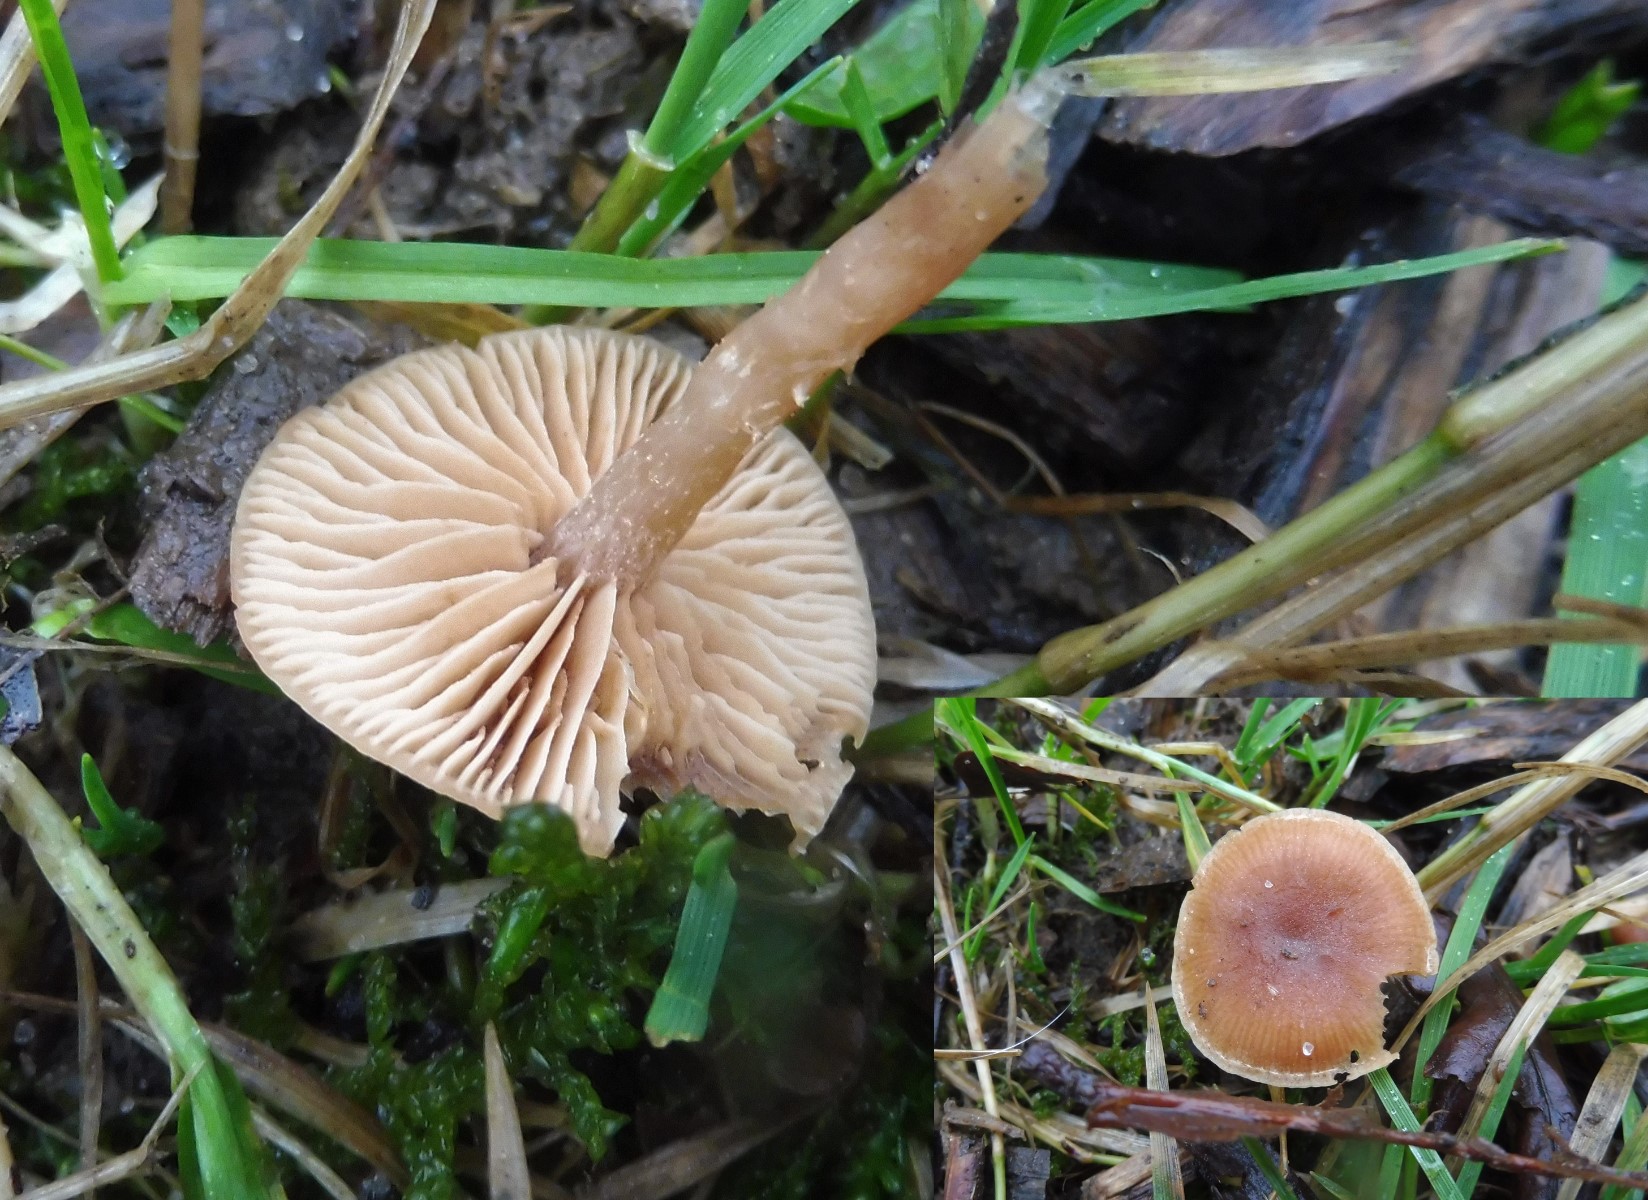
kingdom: Fungi
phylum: Basidiomycota
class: Agaricomycetes
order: Agaricales
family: Tubariaceae
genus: Tubaria
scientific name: Tubaria furfuracea
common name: kliddet fnughat
